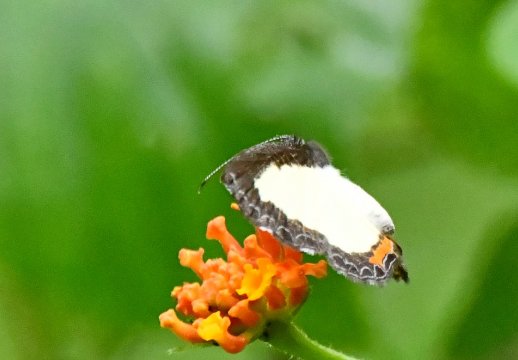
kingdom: Animalia
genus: Nymphidium
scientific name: Nymphidium cachrus
